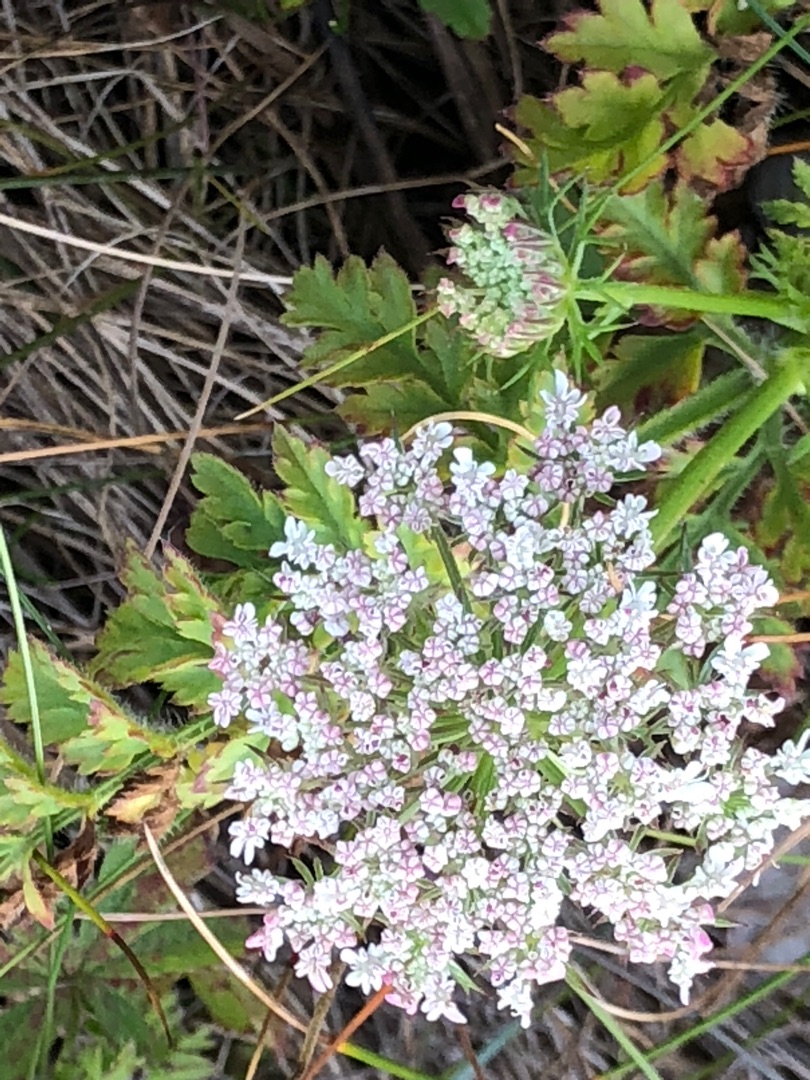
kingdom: Plantae
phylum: Tracheophyta
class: Magnoliopsida
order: Apiales
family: Apiaceae
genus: Daucus
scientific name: Daucus carota
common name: Gulerod
